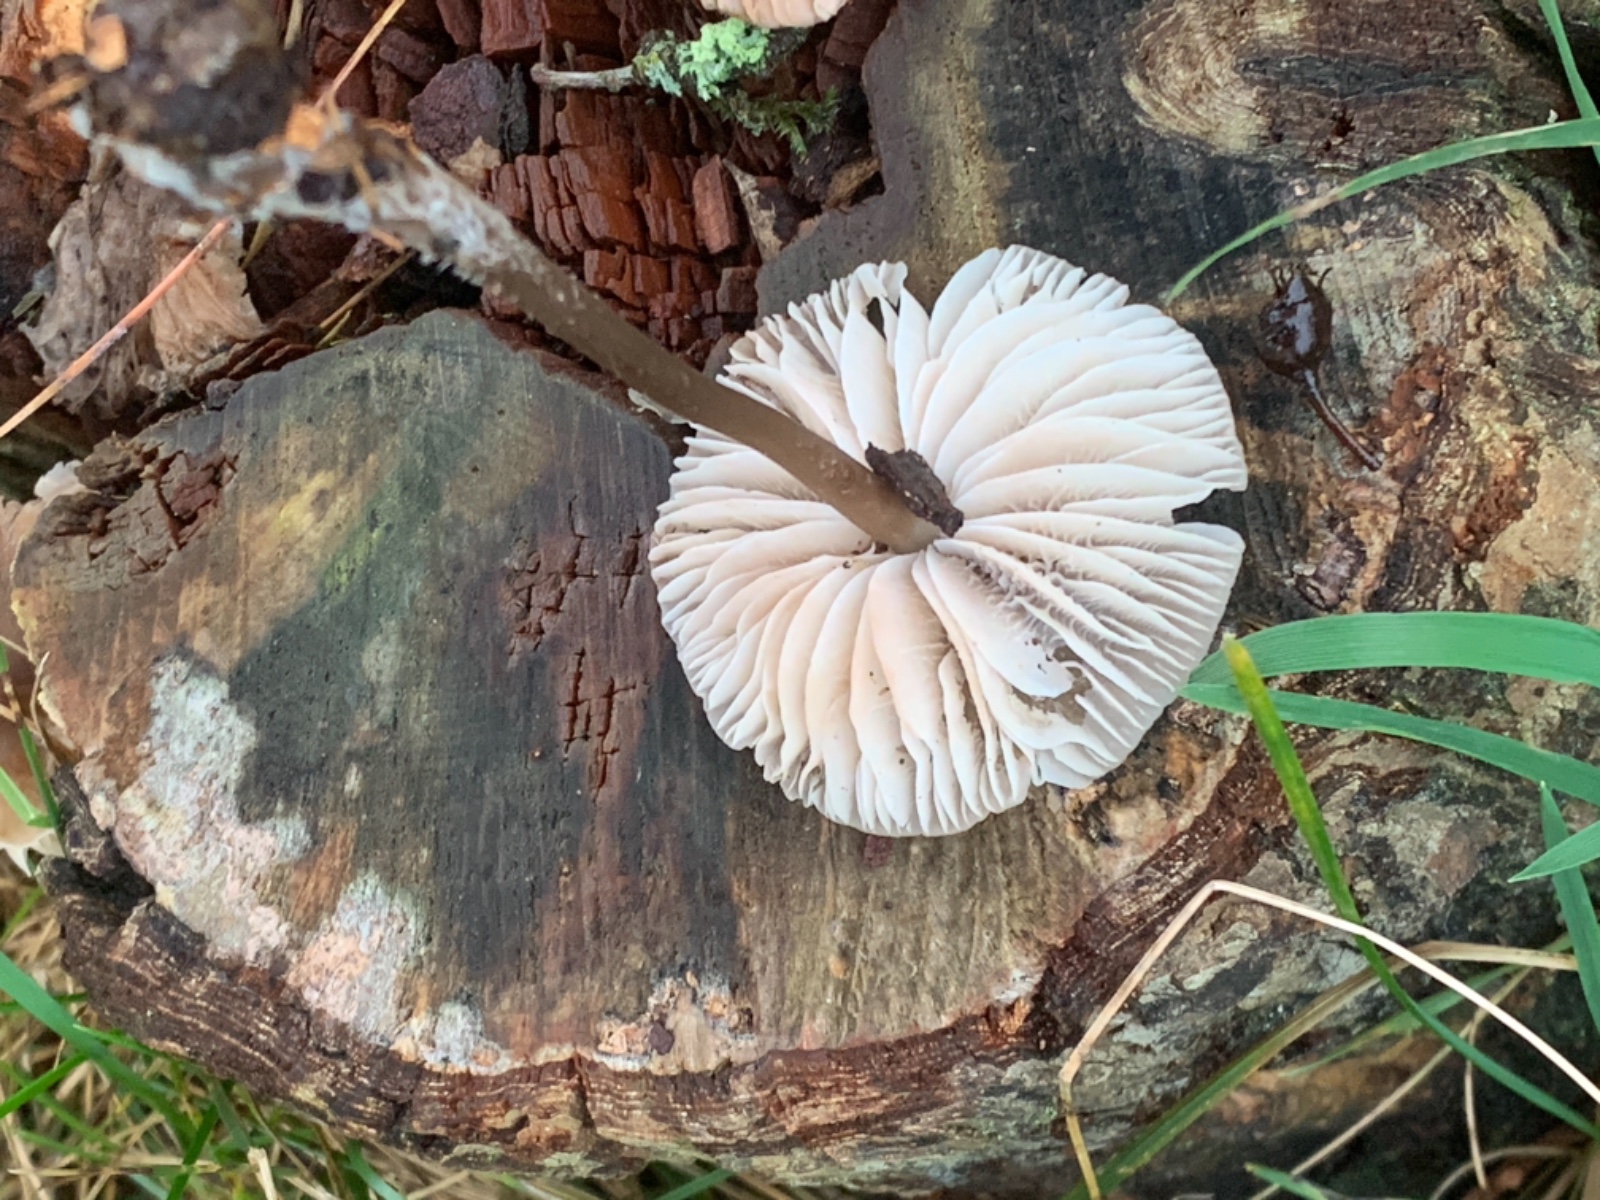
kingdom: Fungi
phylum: Basidiomycota
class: Agaricomycetes
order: Agaricales
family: Mycenaceae
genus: Mycena
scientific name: Mycena galericulata
